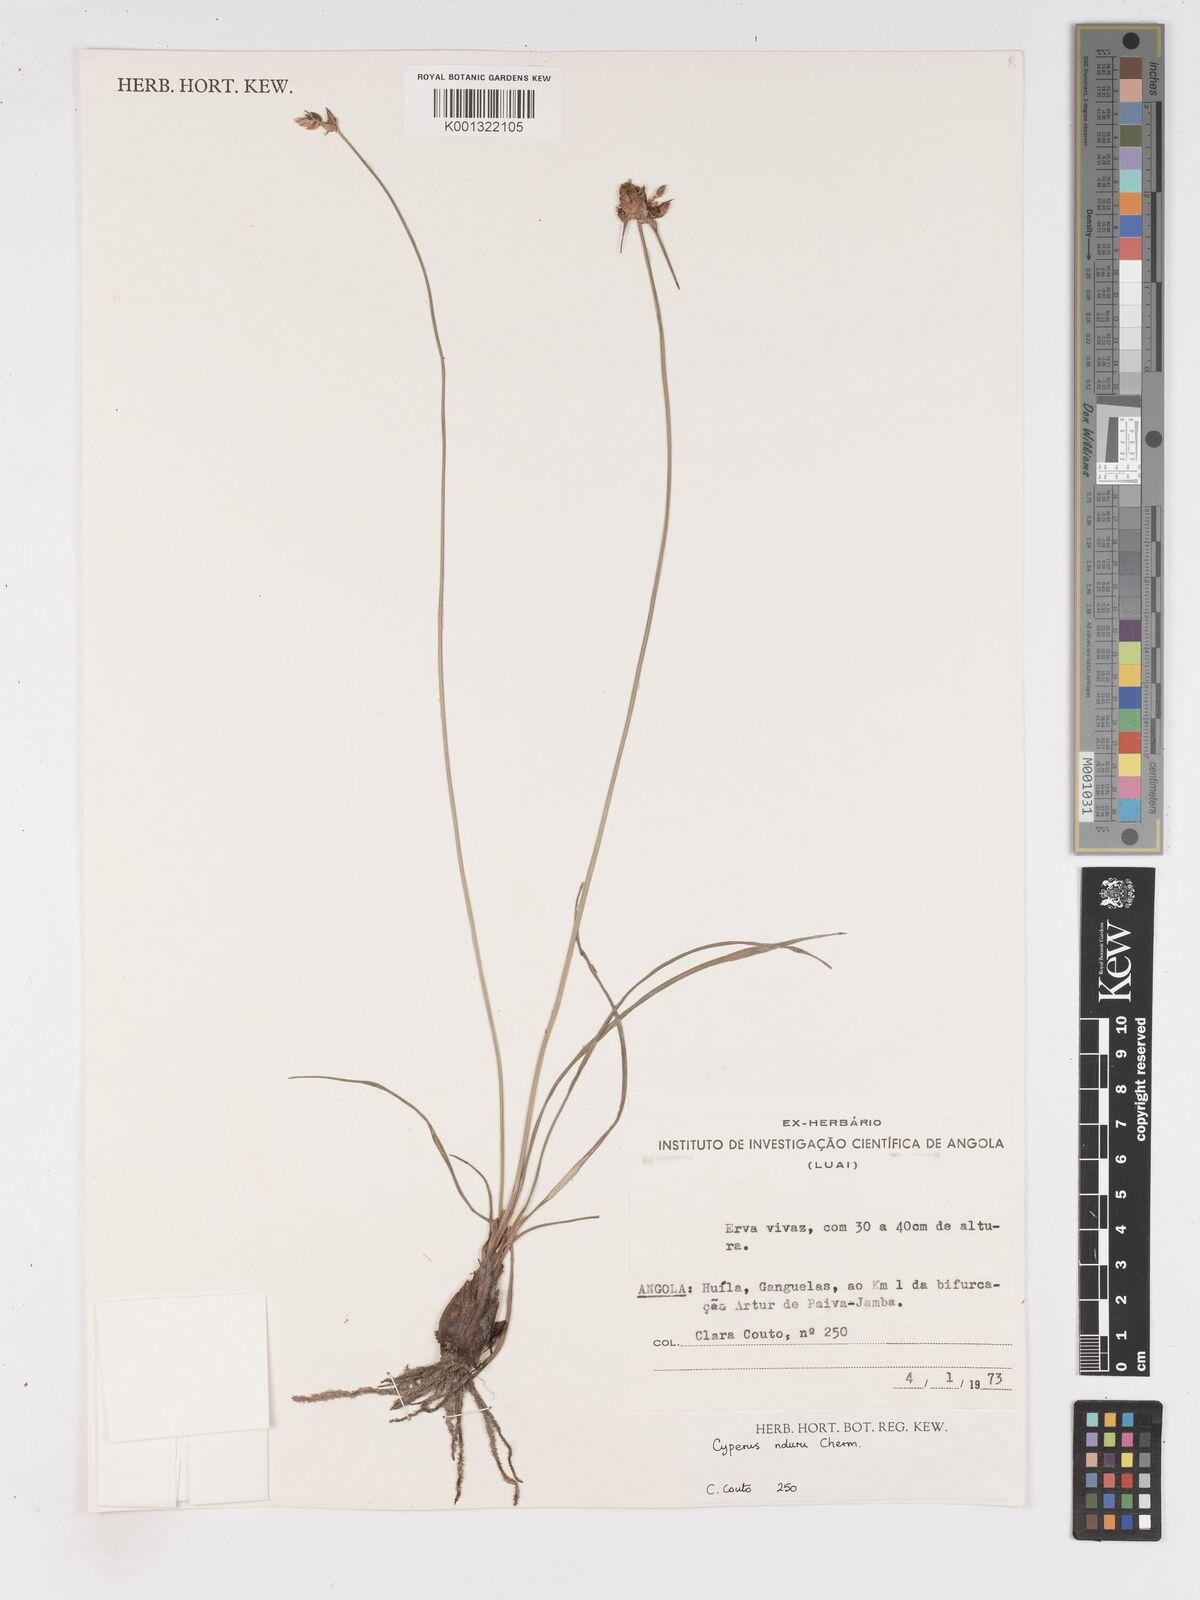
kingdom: Plantae
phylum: Tracheophyta
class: Liliopsida
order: Poales
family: Cyperaceae
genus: Cyperus
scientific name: Cyperus nduru
